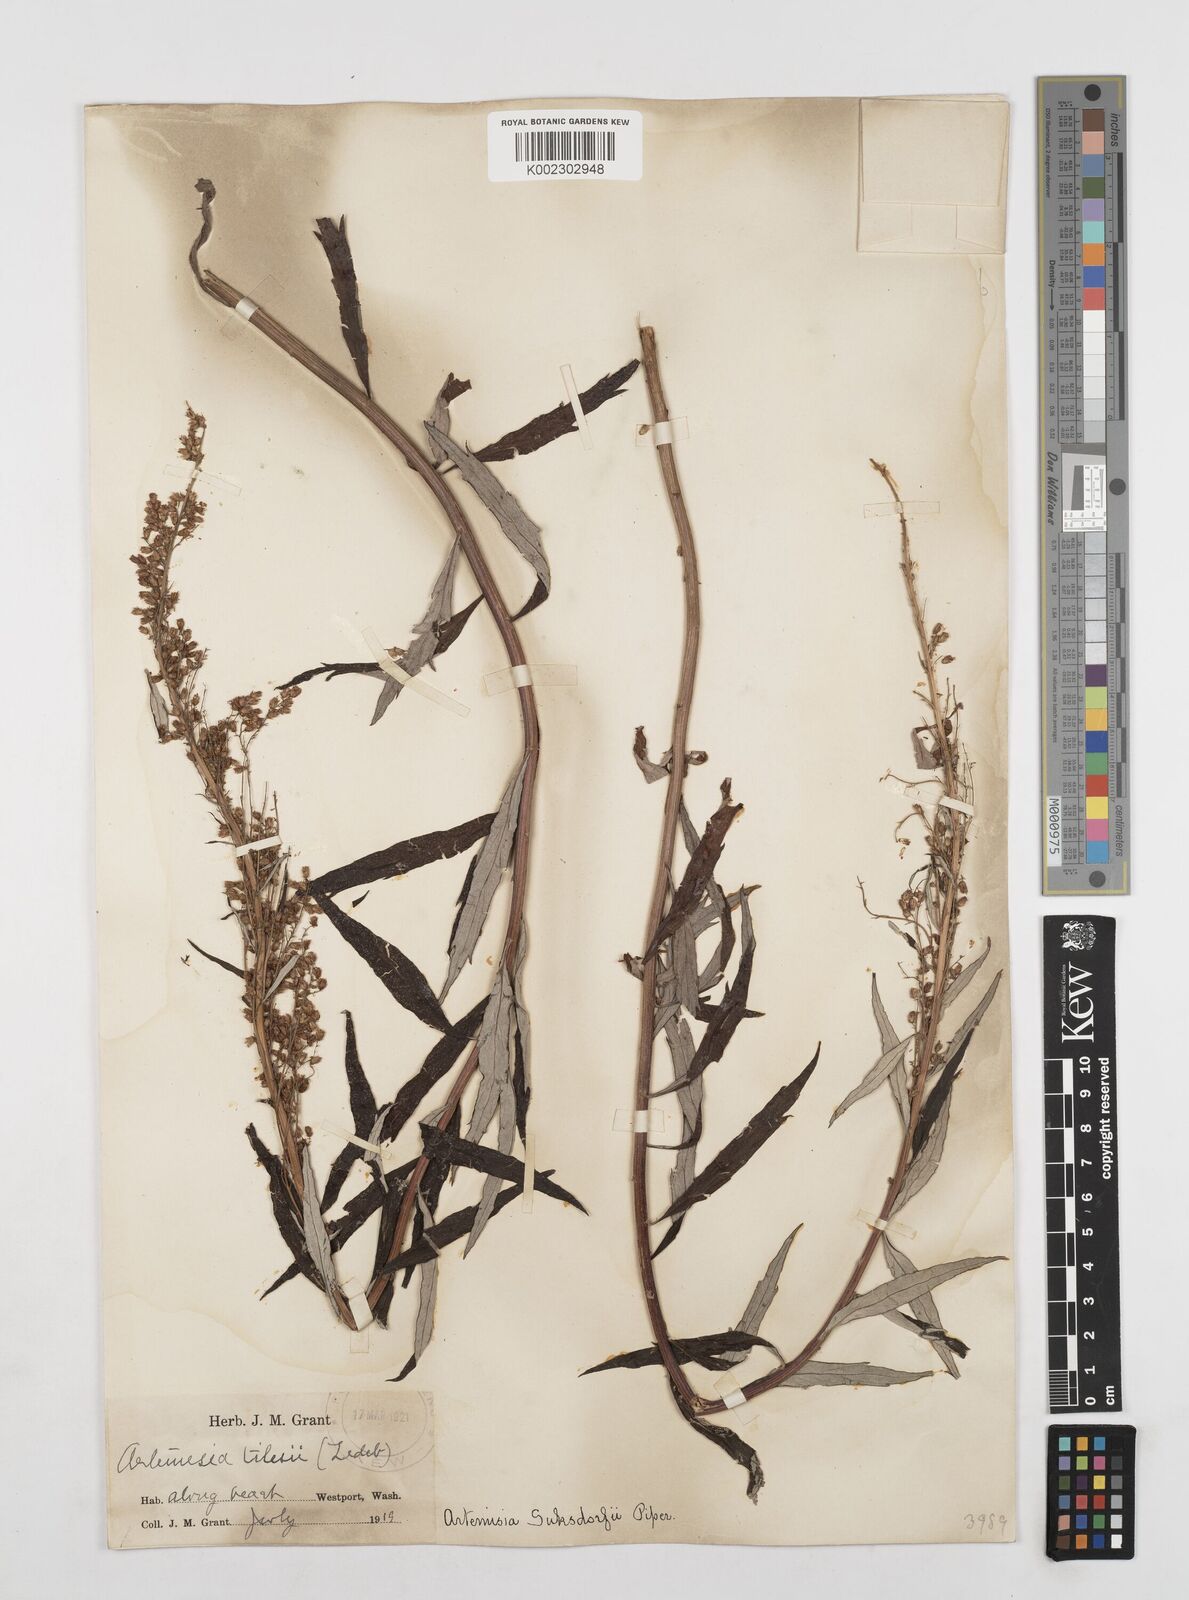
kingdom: Plantae
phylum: Tracheophyta
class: Magnoliopsida
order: Asterales
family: Asteraceae
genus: Artemisia
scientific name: Artemisia douglasiana
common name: Northwest mugwort
